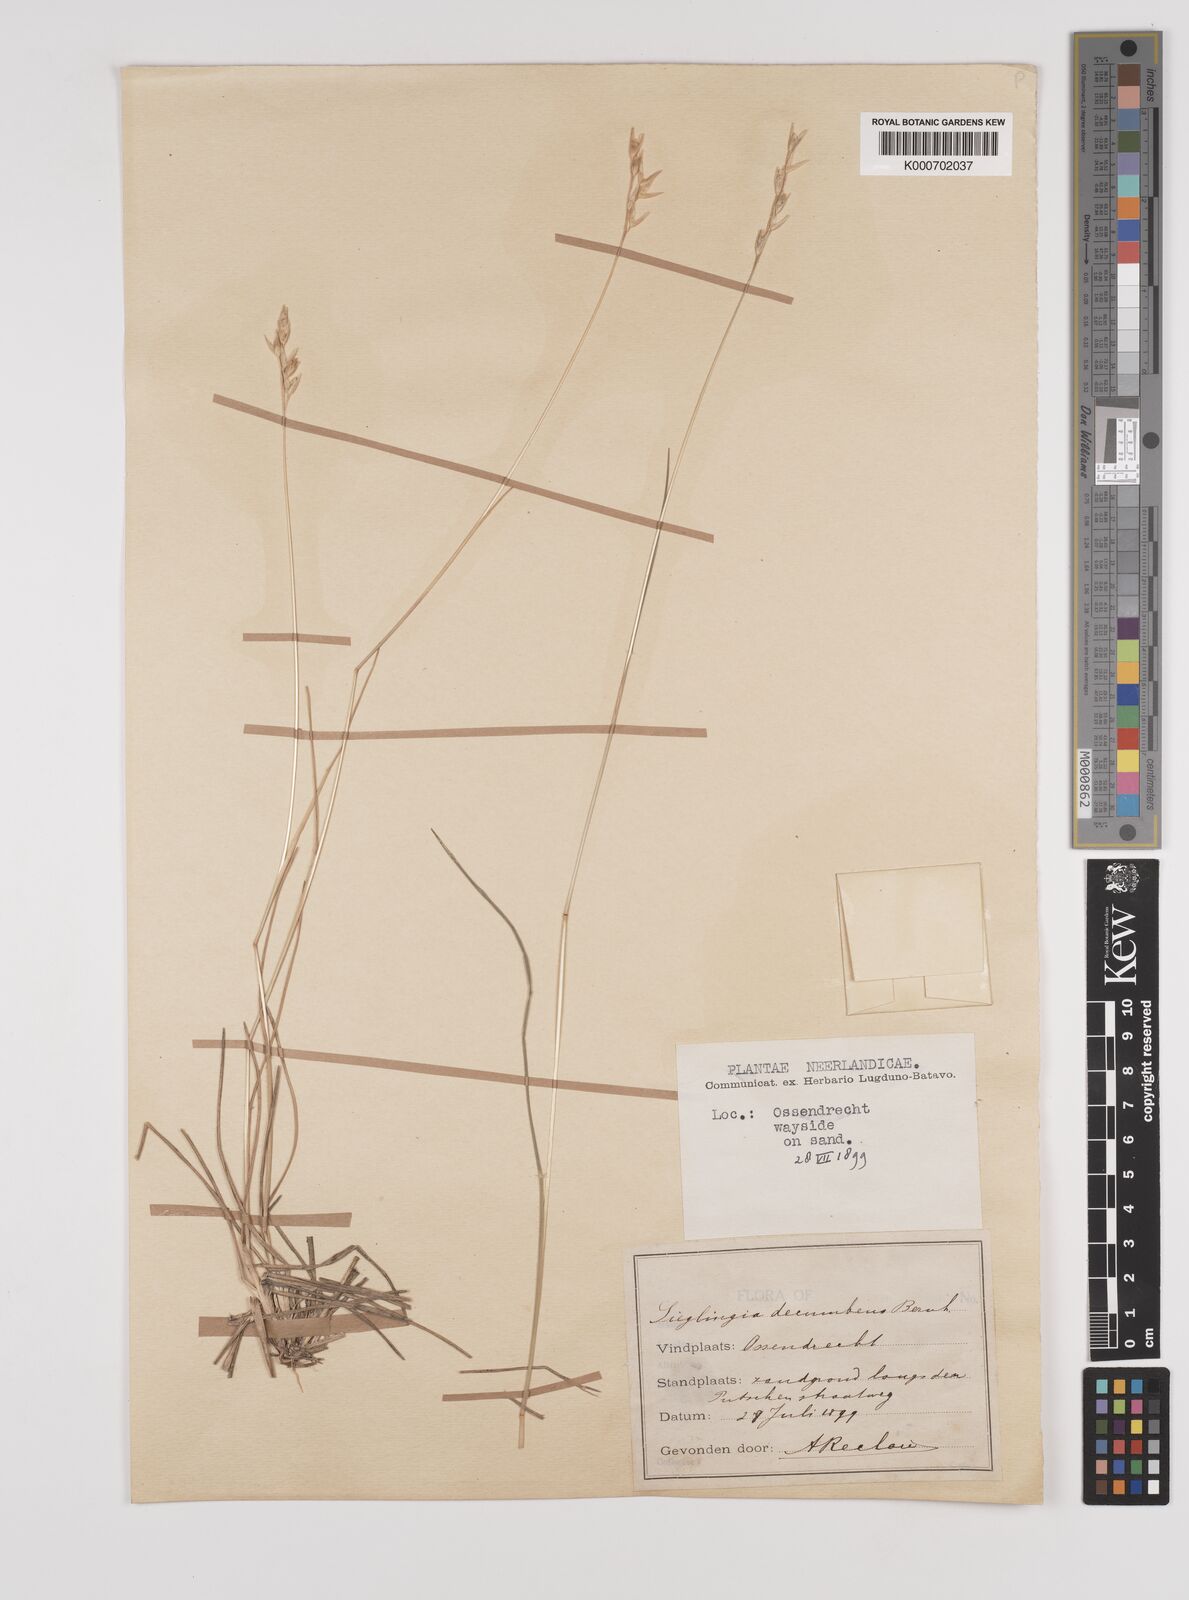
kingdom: Plantae
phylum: Tracheophyta
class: Liliopsida
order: Poales
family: Poaceae
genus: Danthonia
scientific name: Danthonia decumbens
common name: Common heathgrass
